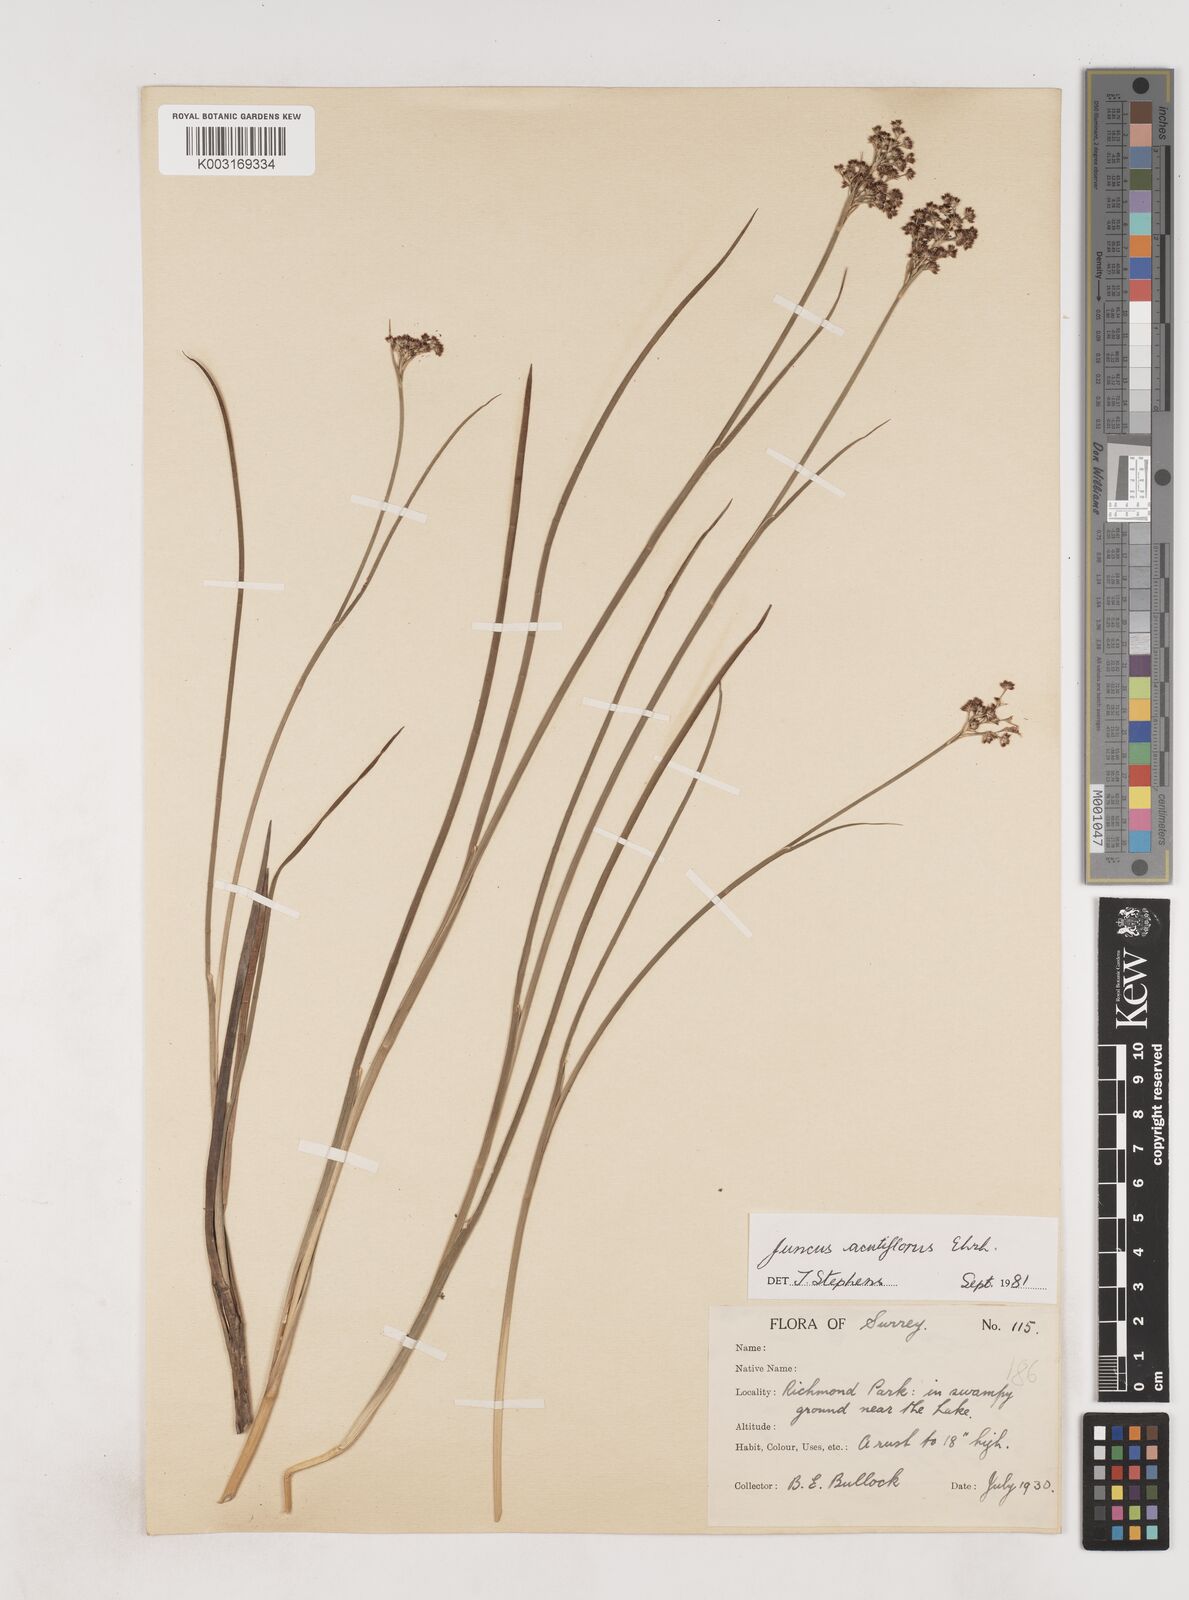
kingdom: Plantae
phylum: Tracheophyta
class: Liliopsida
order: Poales
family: Juncaceae
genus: Juncus
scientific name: Juncus acutiflorus
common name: Sharp-flowered rush
